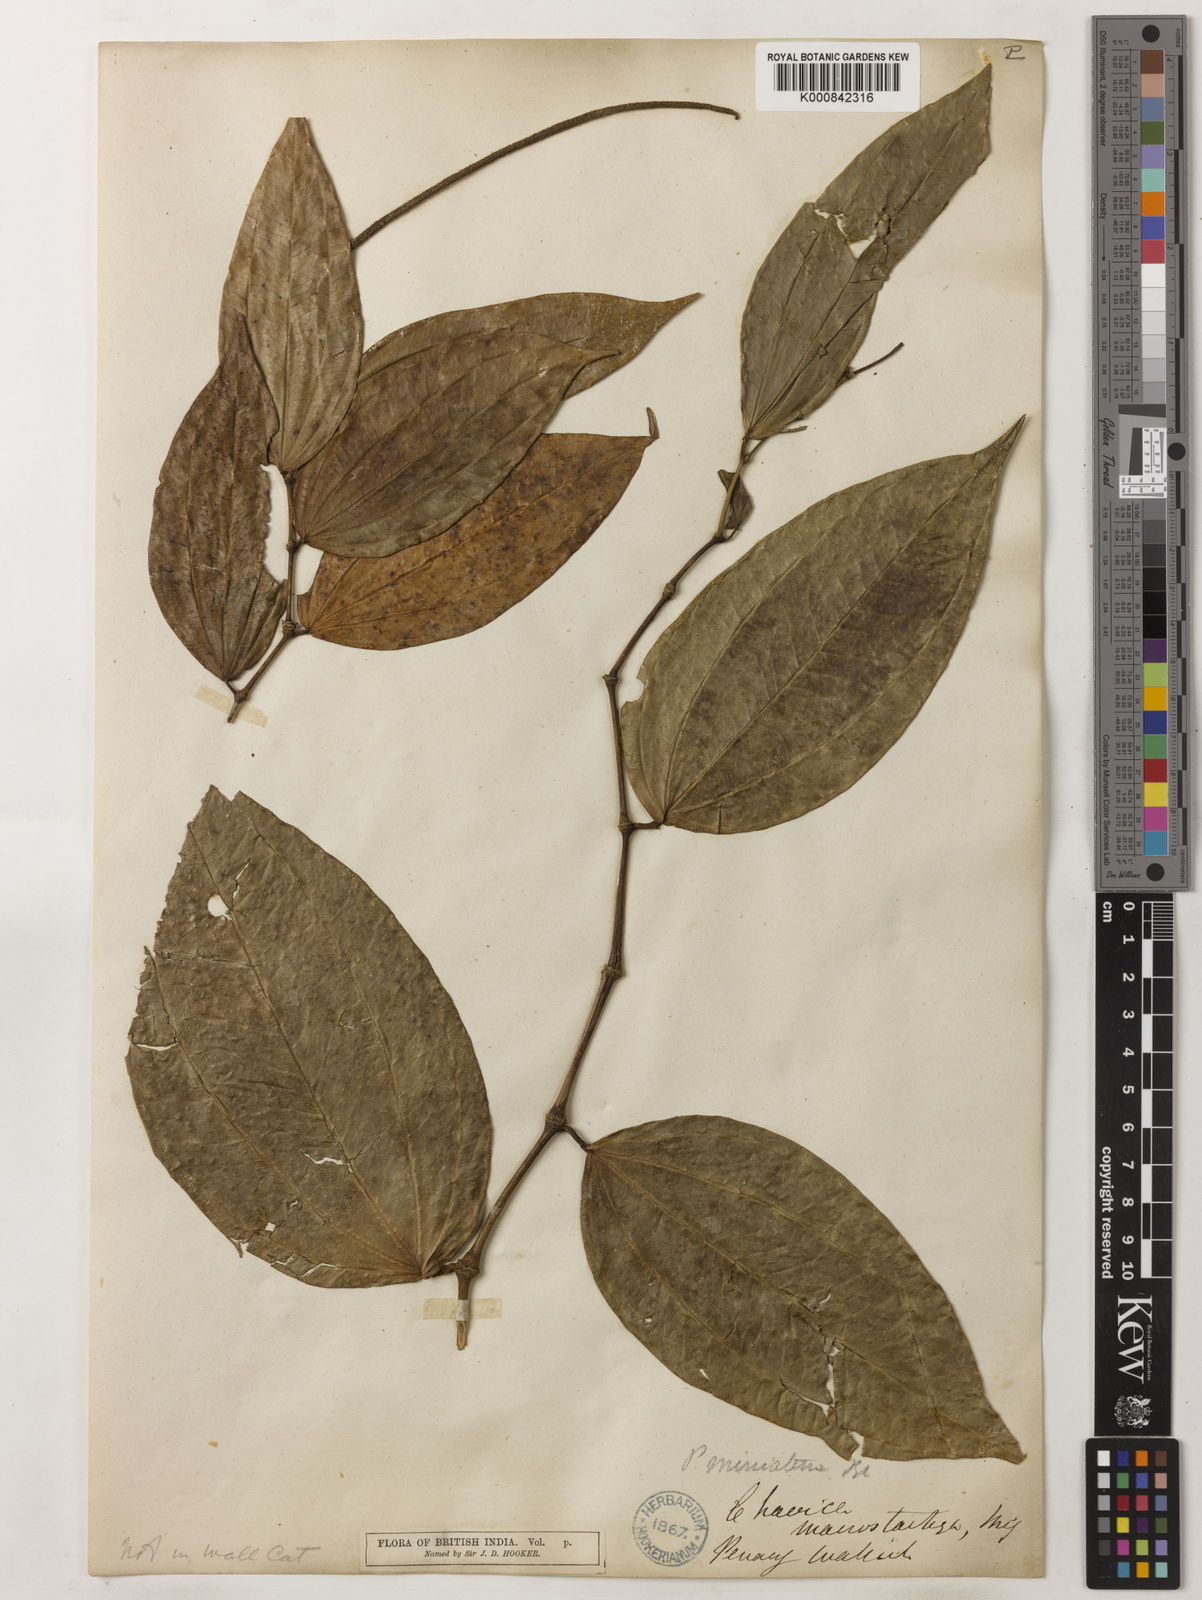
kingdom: Plantae
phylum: Tracheophyta
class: Magnoliopsida
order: Piperales
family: Piperaceae
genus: Piper
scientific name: Piper macropiper
